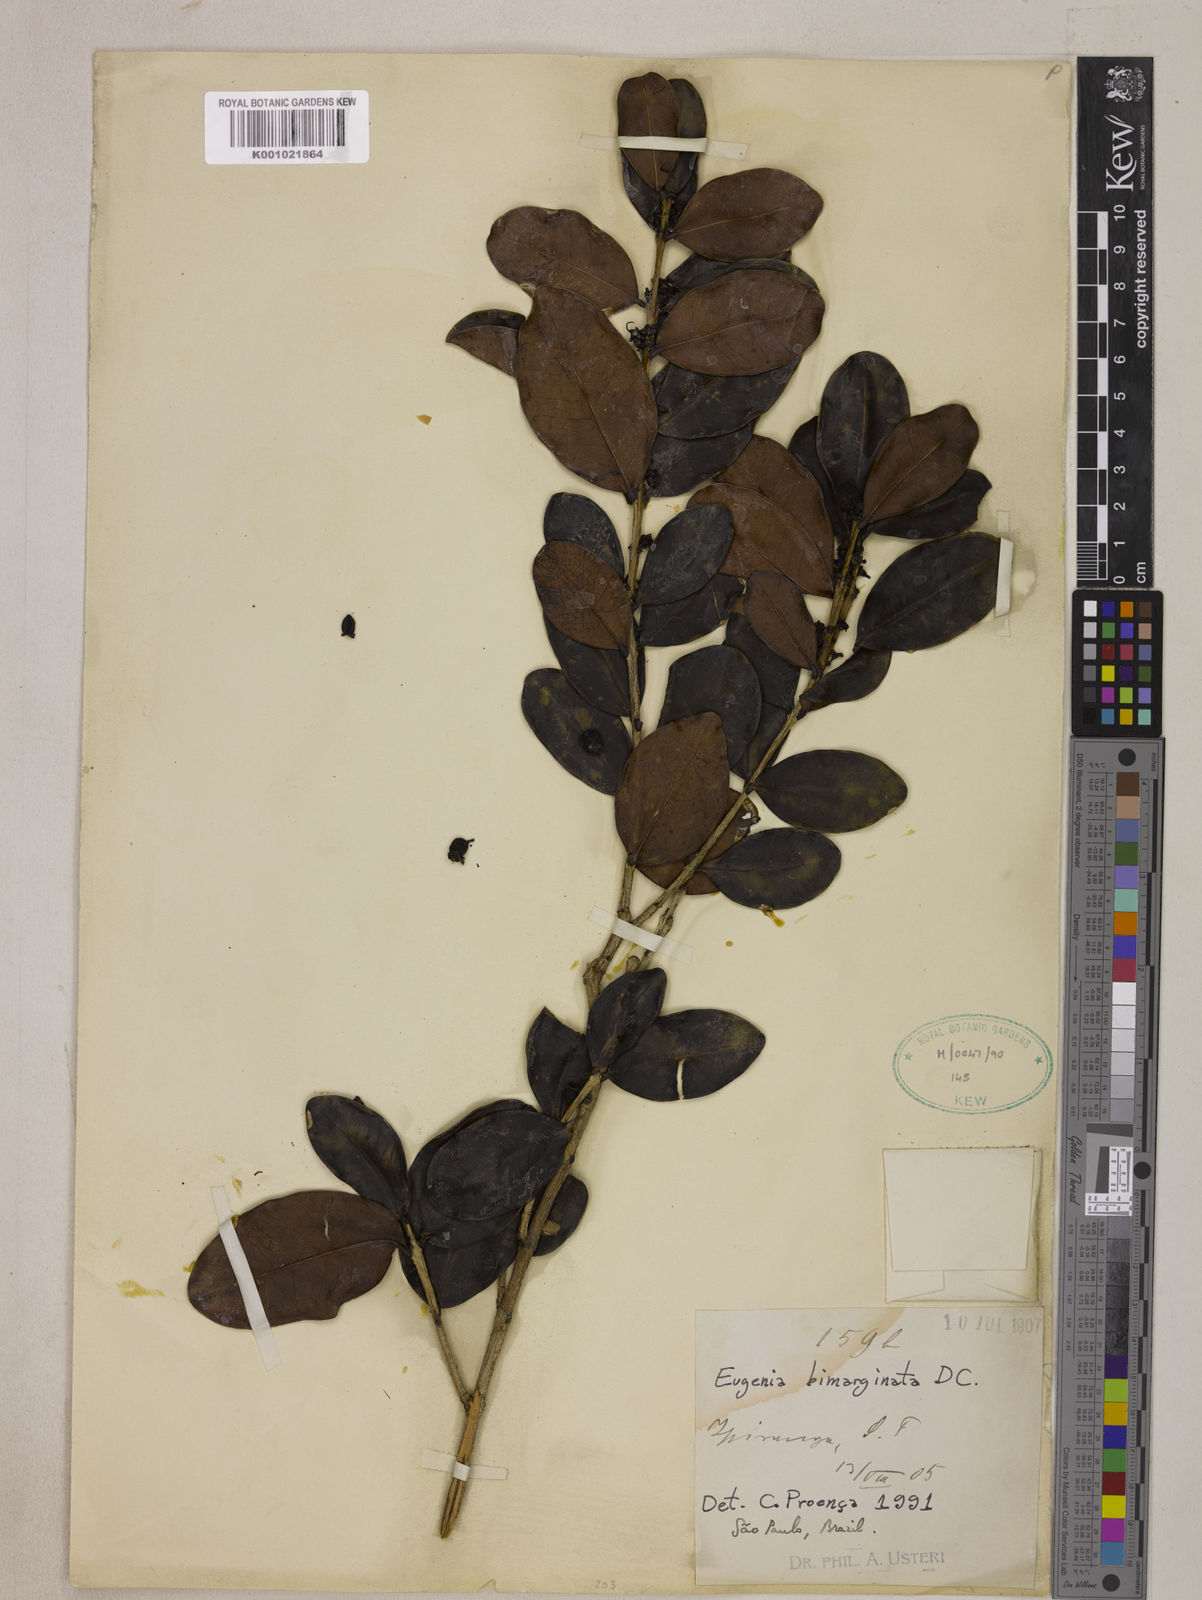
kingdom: Plantae
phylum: Tracheophyta
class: Magnoliopsida
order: Myrtales
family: Myrtaceae
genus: Eugenia
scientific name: Eugenia bimarginata
